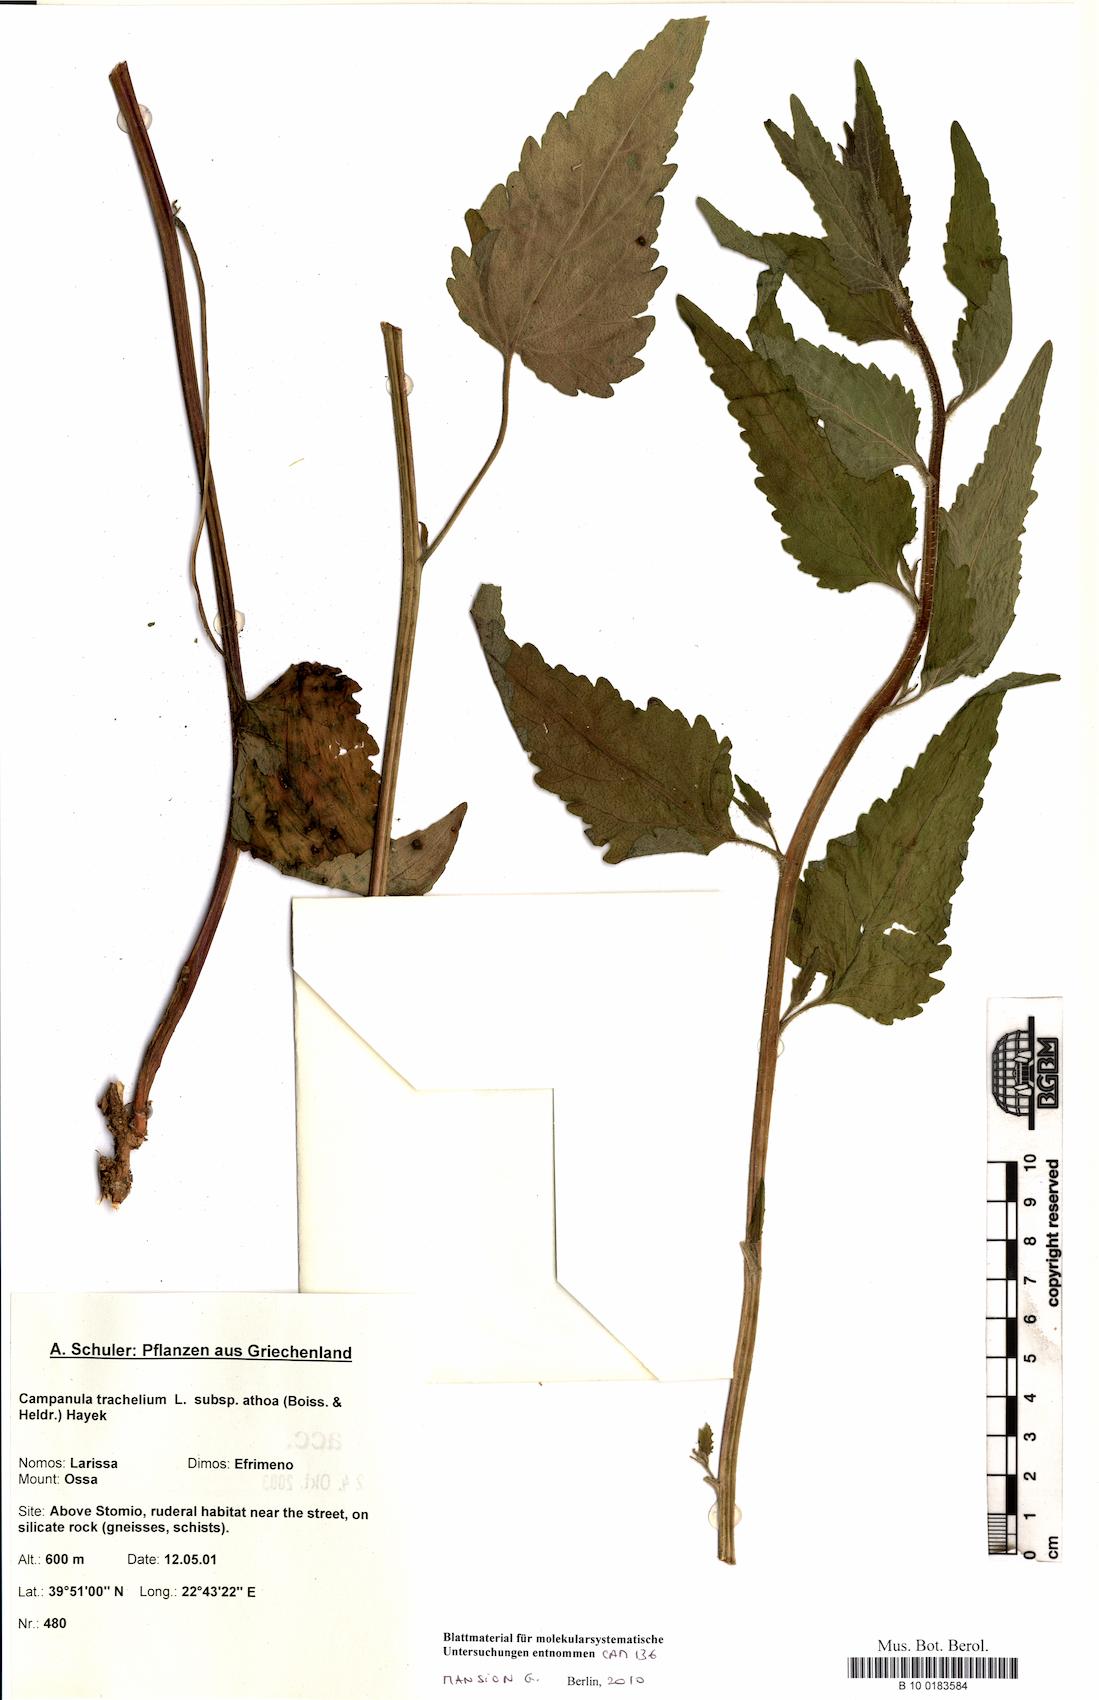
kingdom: Plantae
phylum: Tracheophyta
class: Magnoliopsida
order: Asterales
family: Campanulaceae
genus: Campanula
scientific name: Campanula trachelium
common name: Nettle-leaved bellflower
